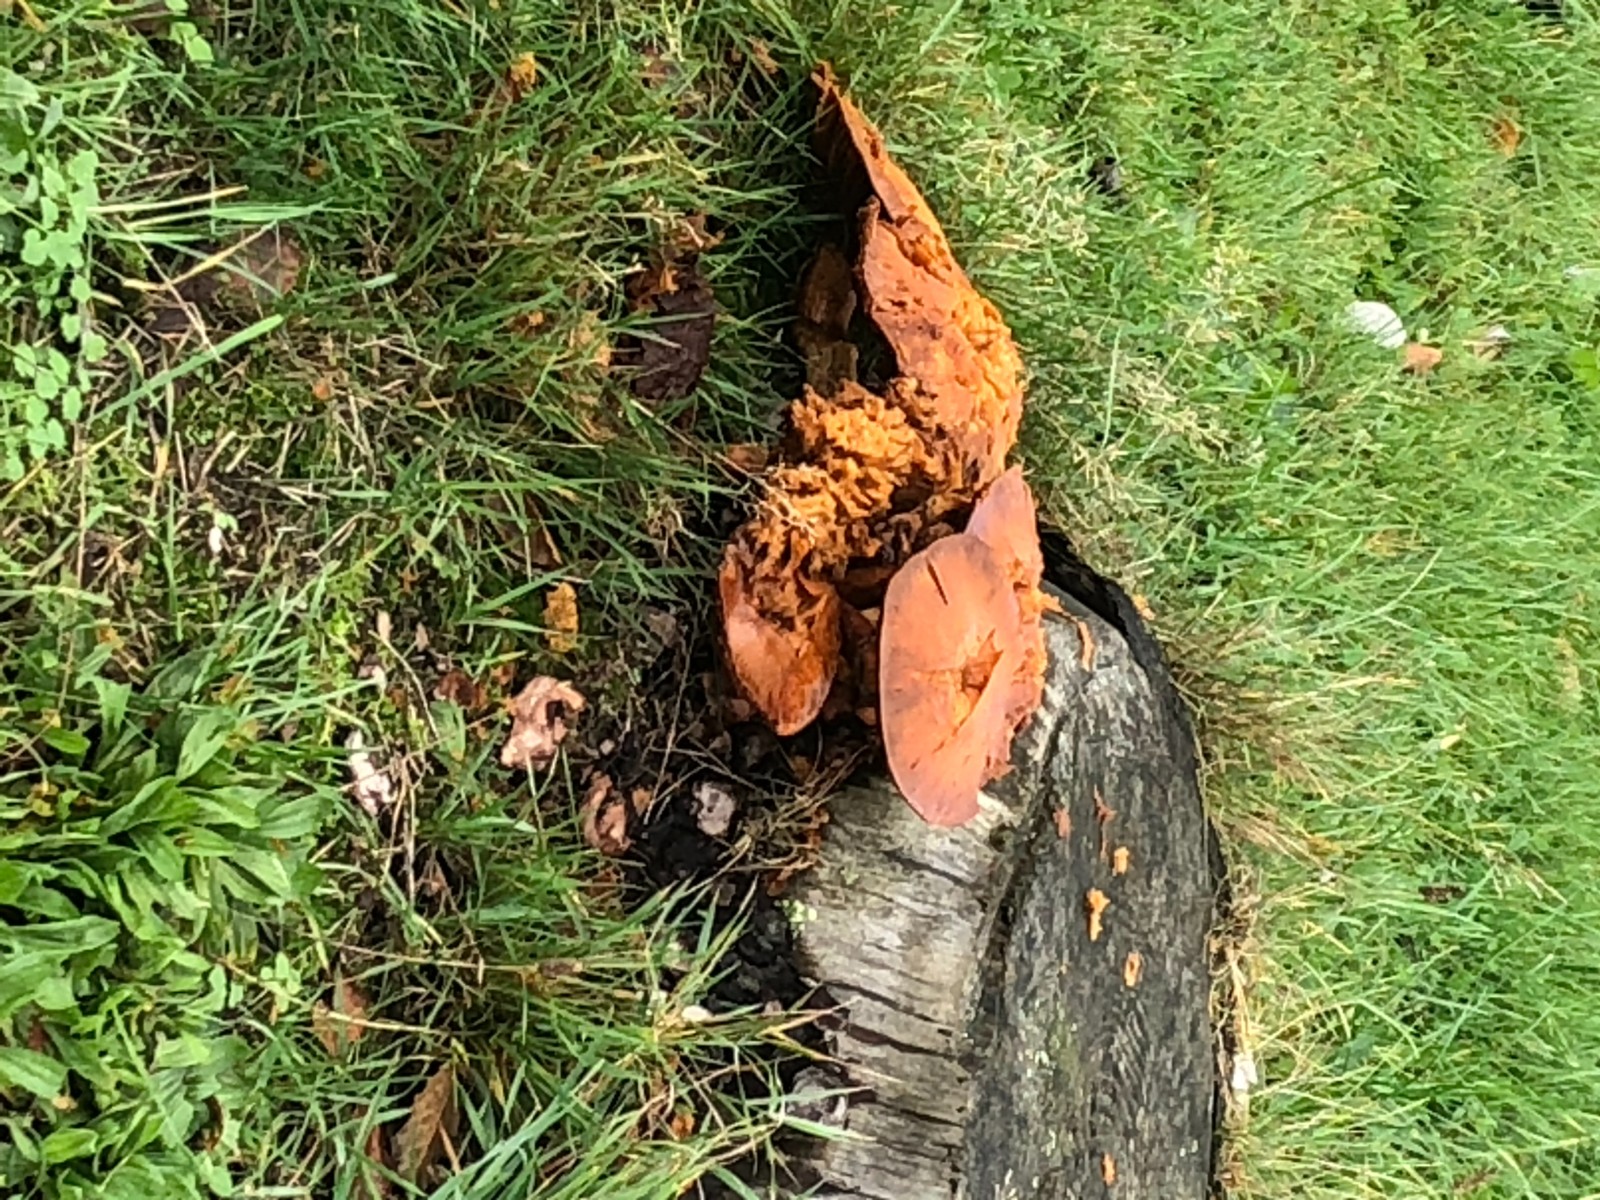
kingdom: Fungi
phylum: Basidiomycota
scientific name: Basidiomycota
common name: basidiesvampe
